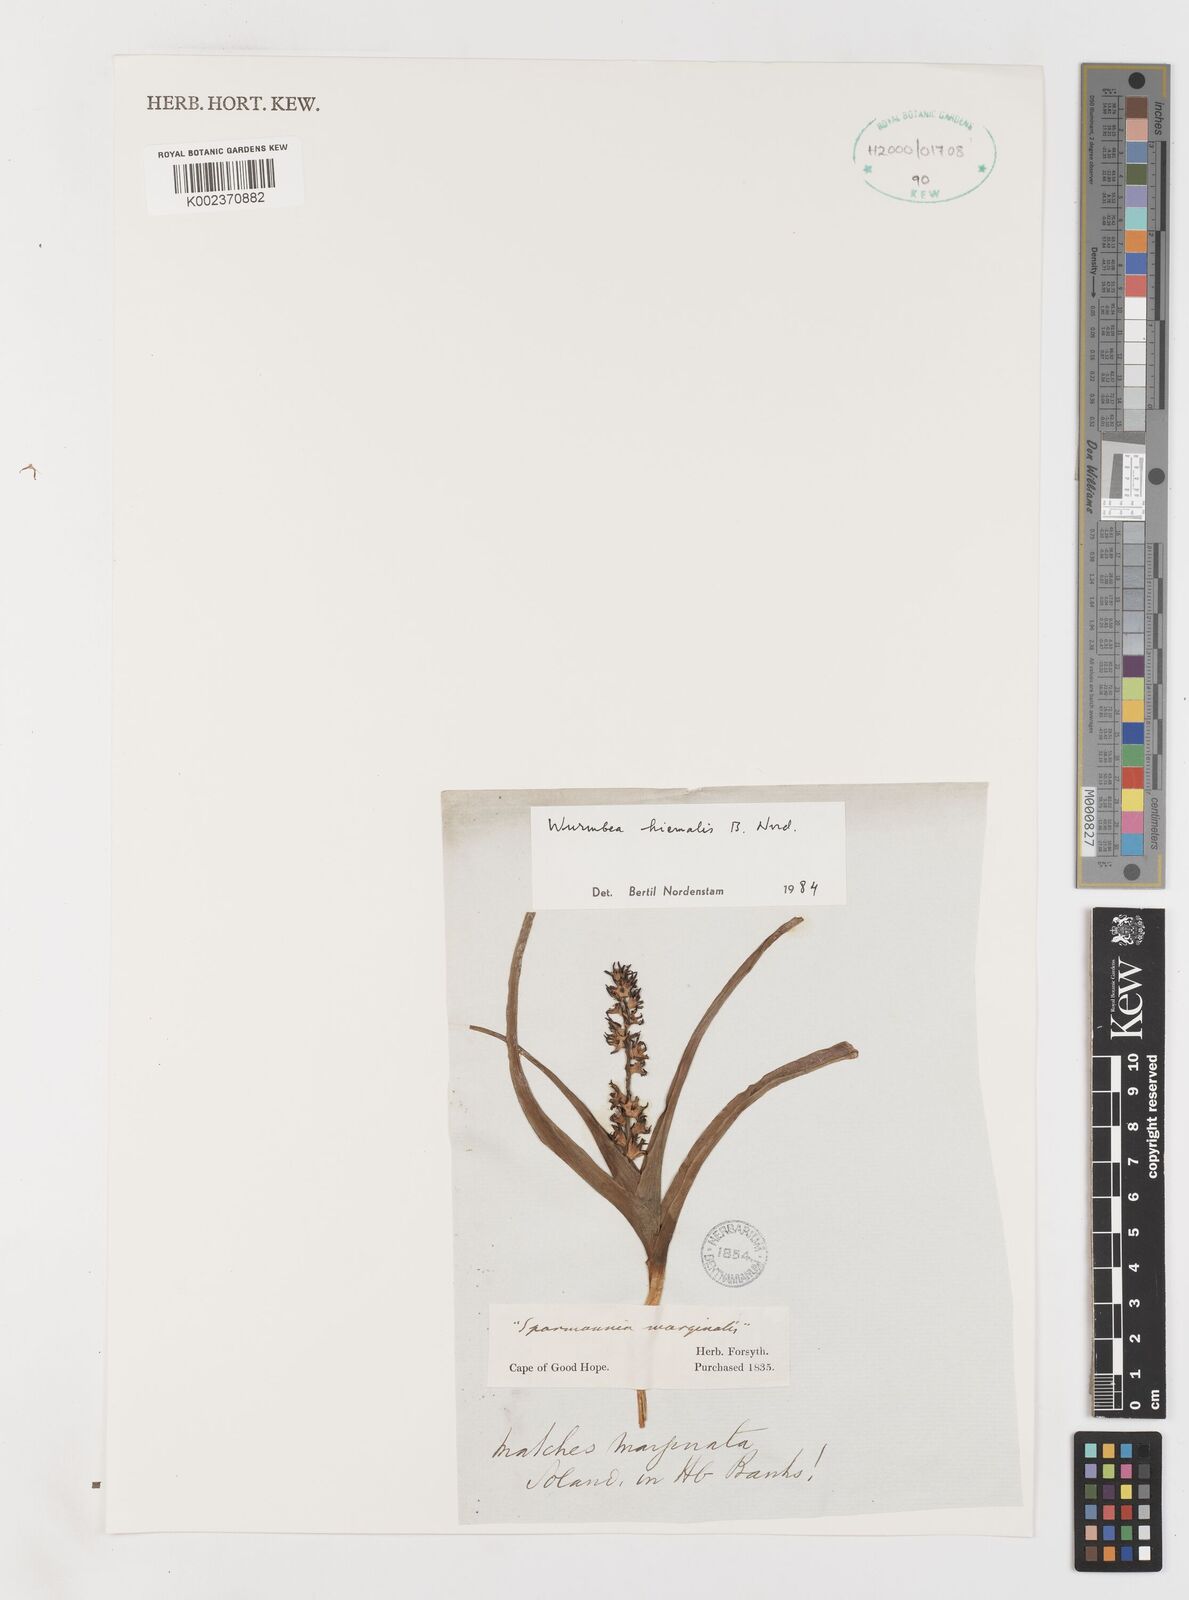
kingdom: Plantae
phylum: Tracheophyta
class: Liliopsida
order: Liliales
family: Colchicaceae
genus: Wurmbea
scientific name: Wurmbea hiemalis
